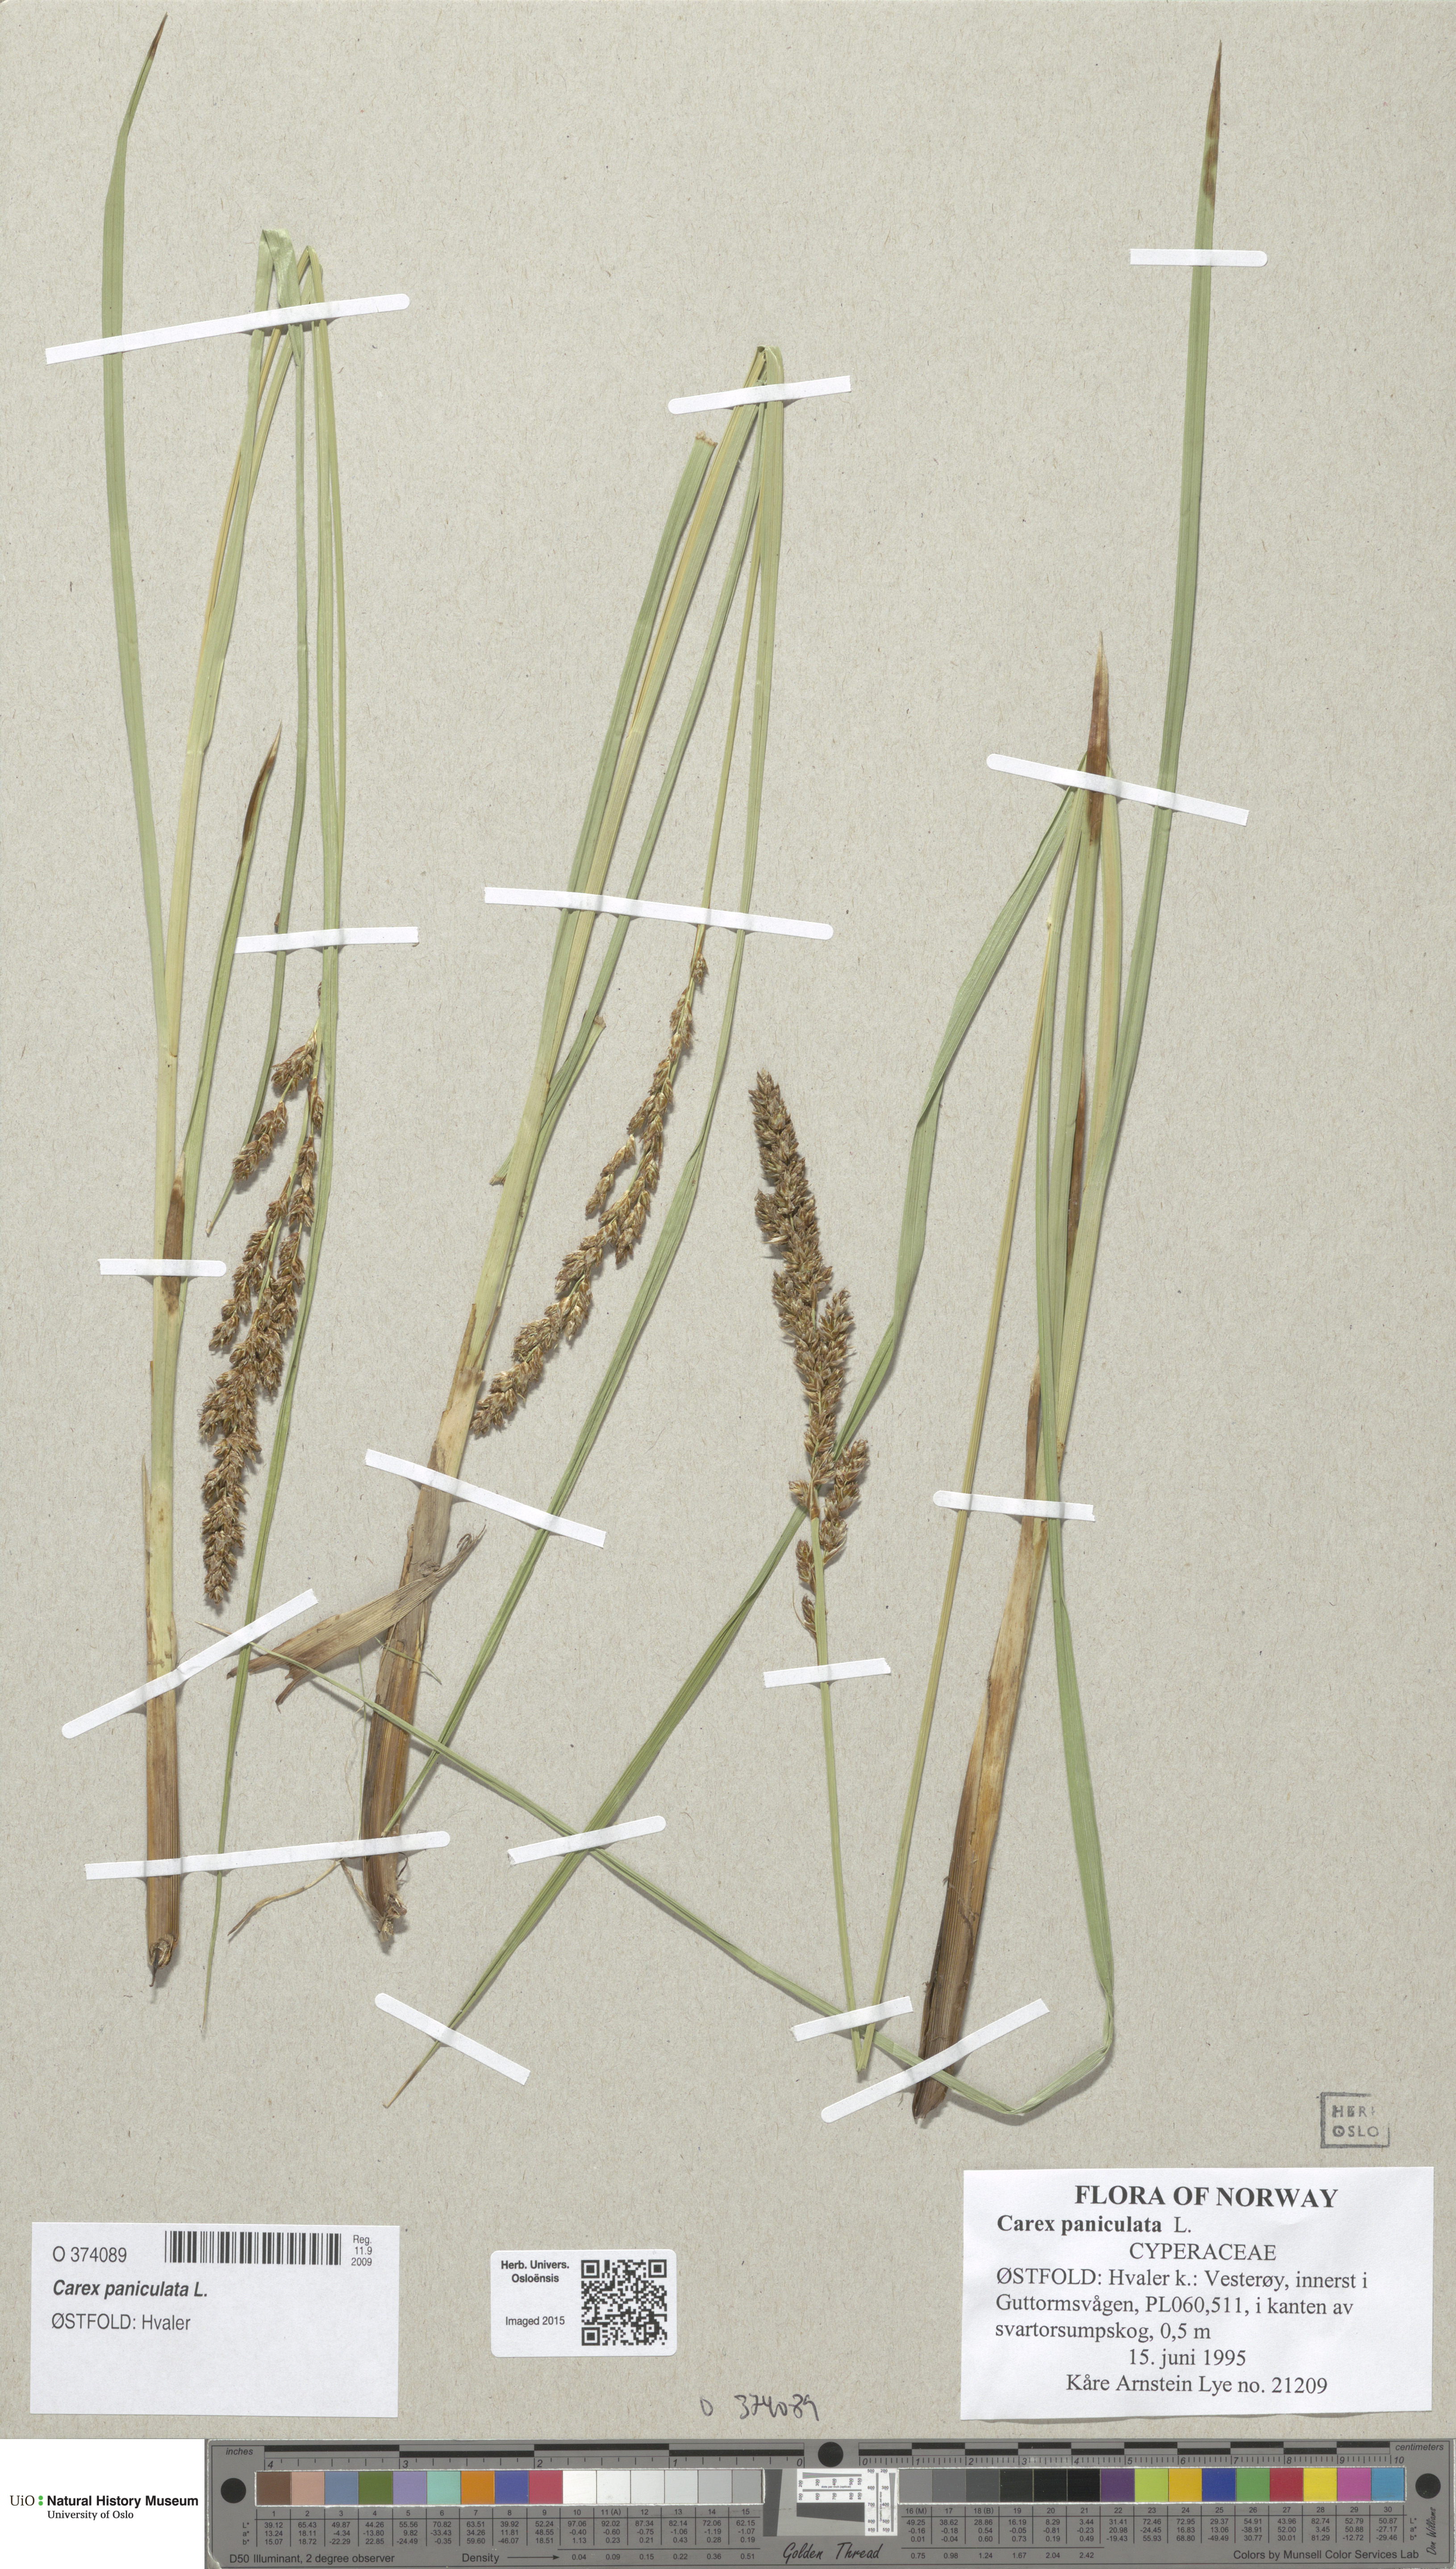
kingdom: Plantae
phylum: Tracheophyta
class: Liliopsida
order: Poales
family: Cyperaceae
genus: Carex
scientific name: Carex paniculata
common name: Greater tussock-sedge
